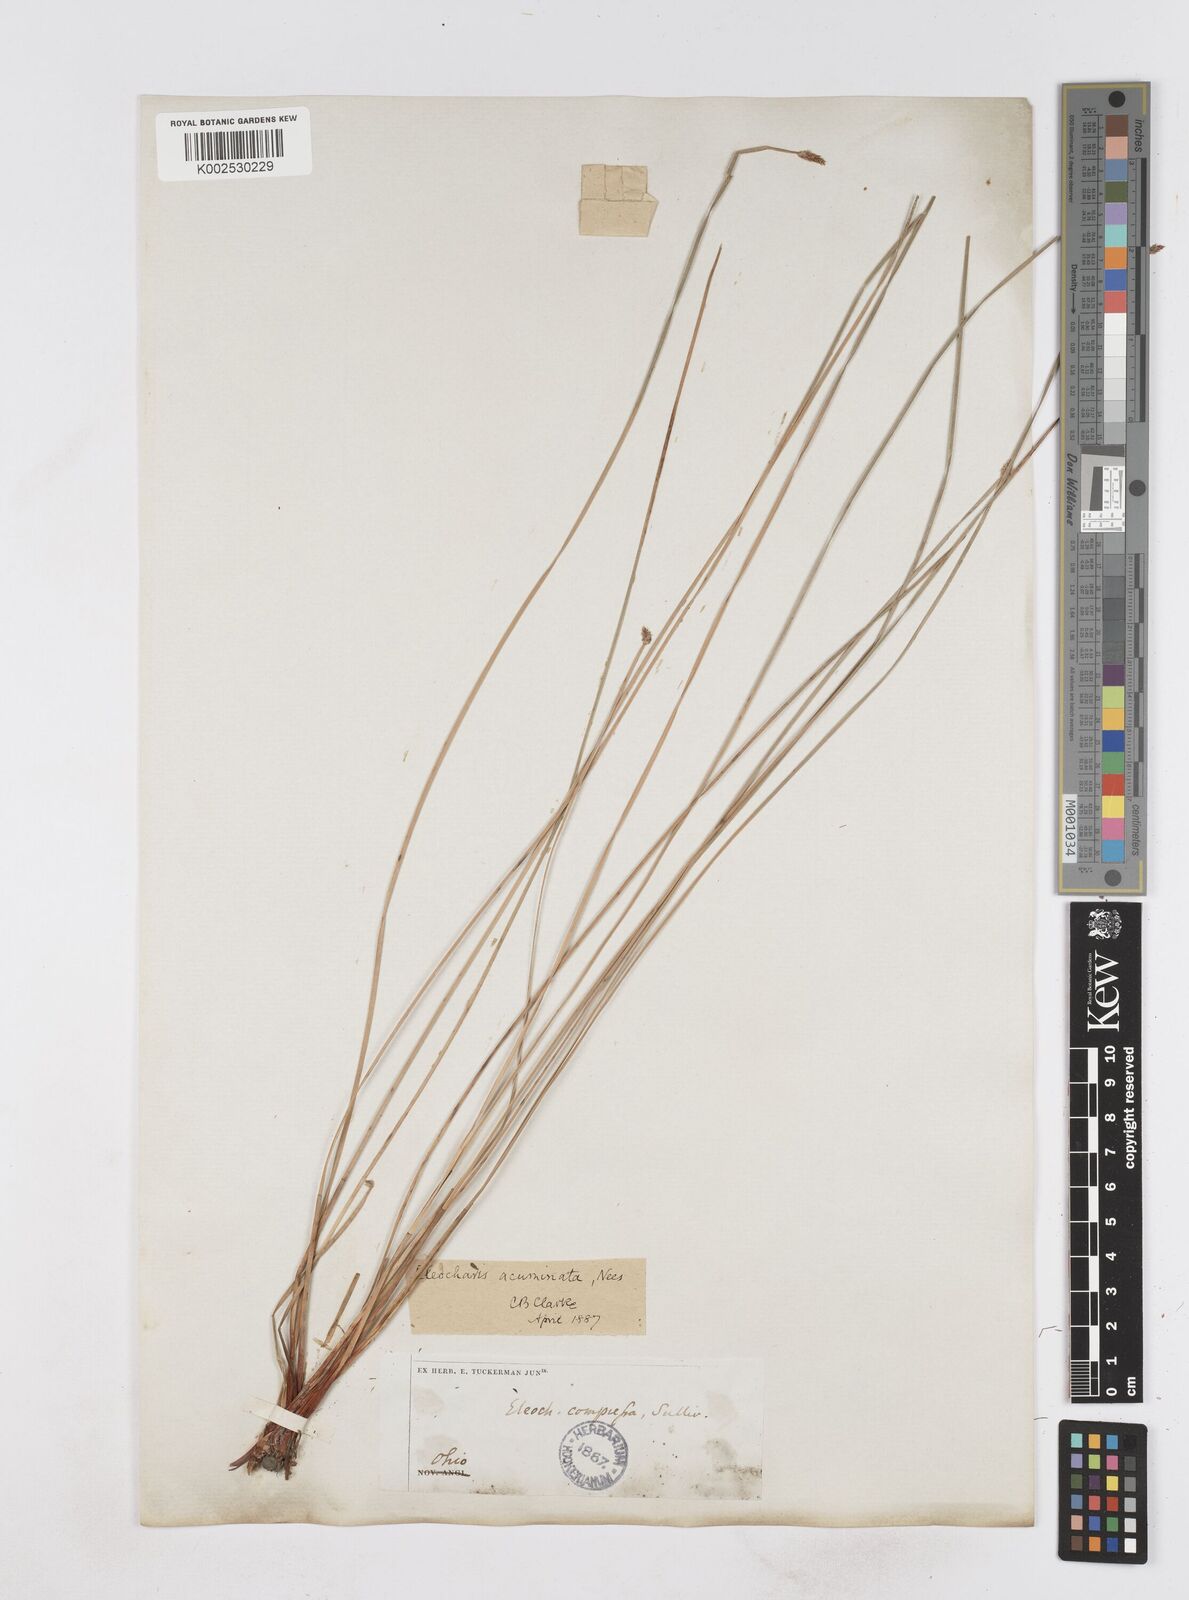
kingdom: Plantae
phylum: Tracheophyta
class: Liliopsida
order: Poales
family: Cyperaceae
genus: Eleocharis
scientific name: Eleocharis compressa
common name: Flat-stem spike-rush
